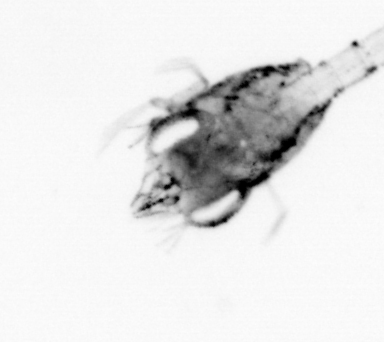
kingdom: Animalia
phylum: Arthropoda
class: Malacostraca
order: Decapoda
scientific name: Decapoda
